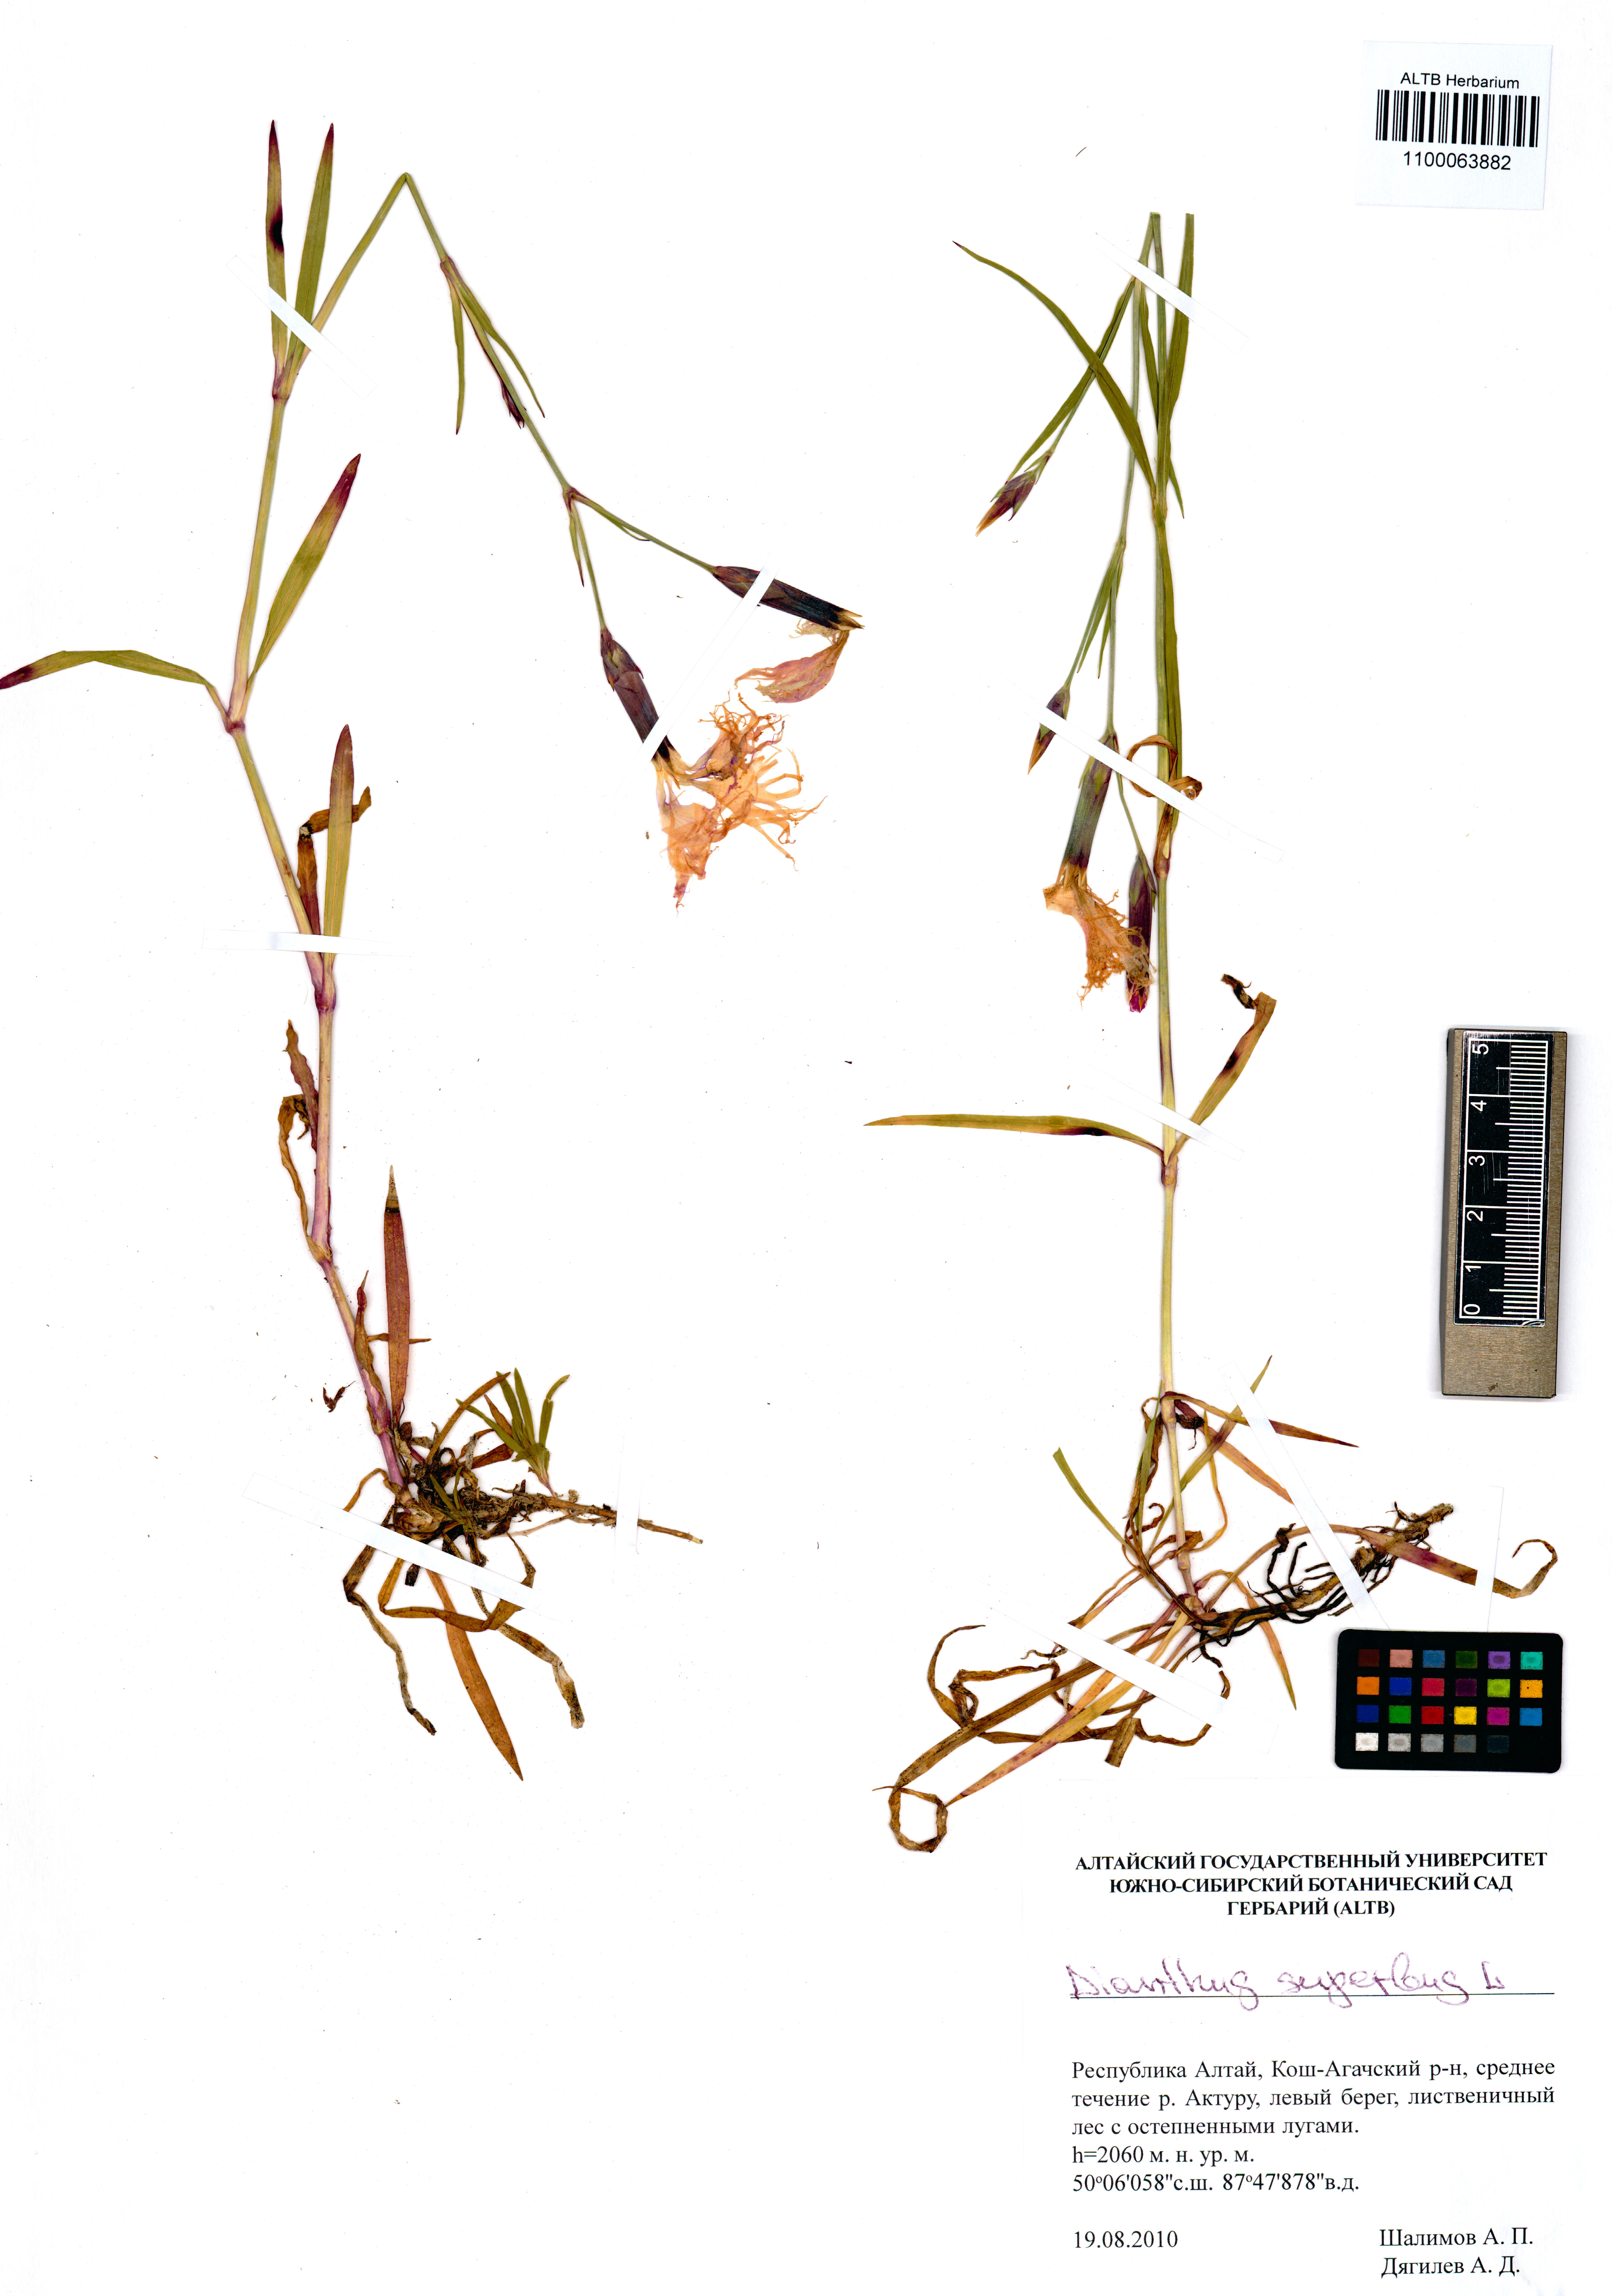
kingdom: Plantae
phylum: Tracheophyta
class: Magnoliopsida
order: Caryophyllales
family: Caryophyllaceae
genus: Dianthus
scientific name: Dianthus superbus
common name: Fringed pink
